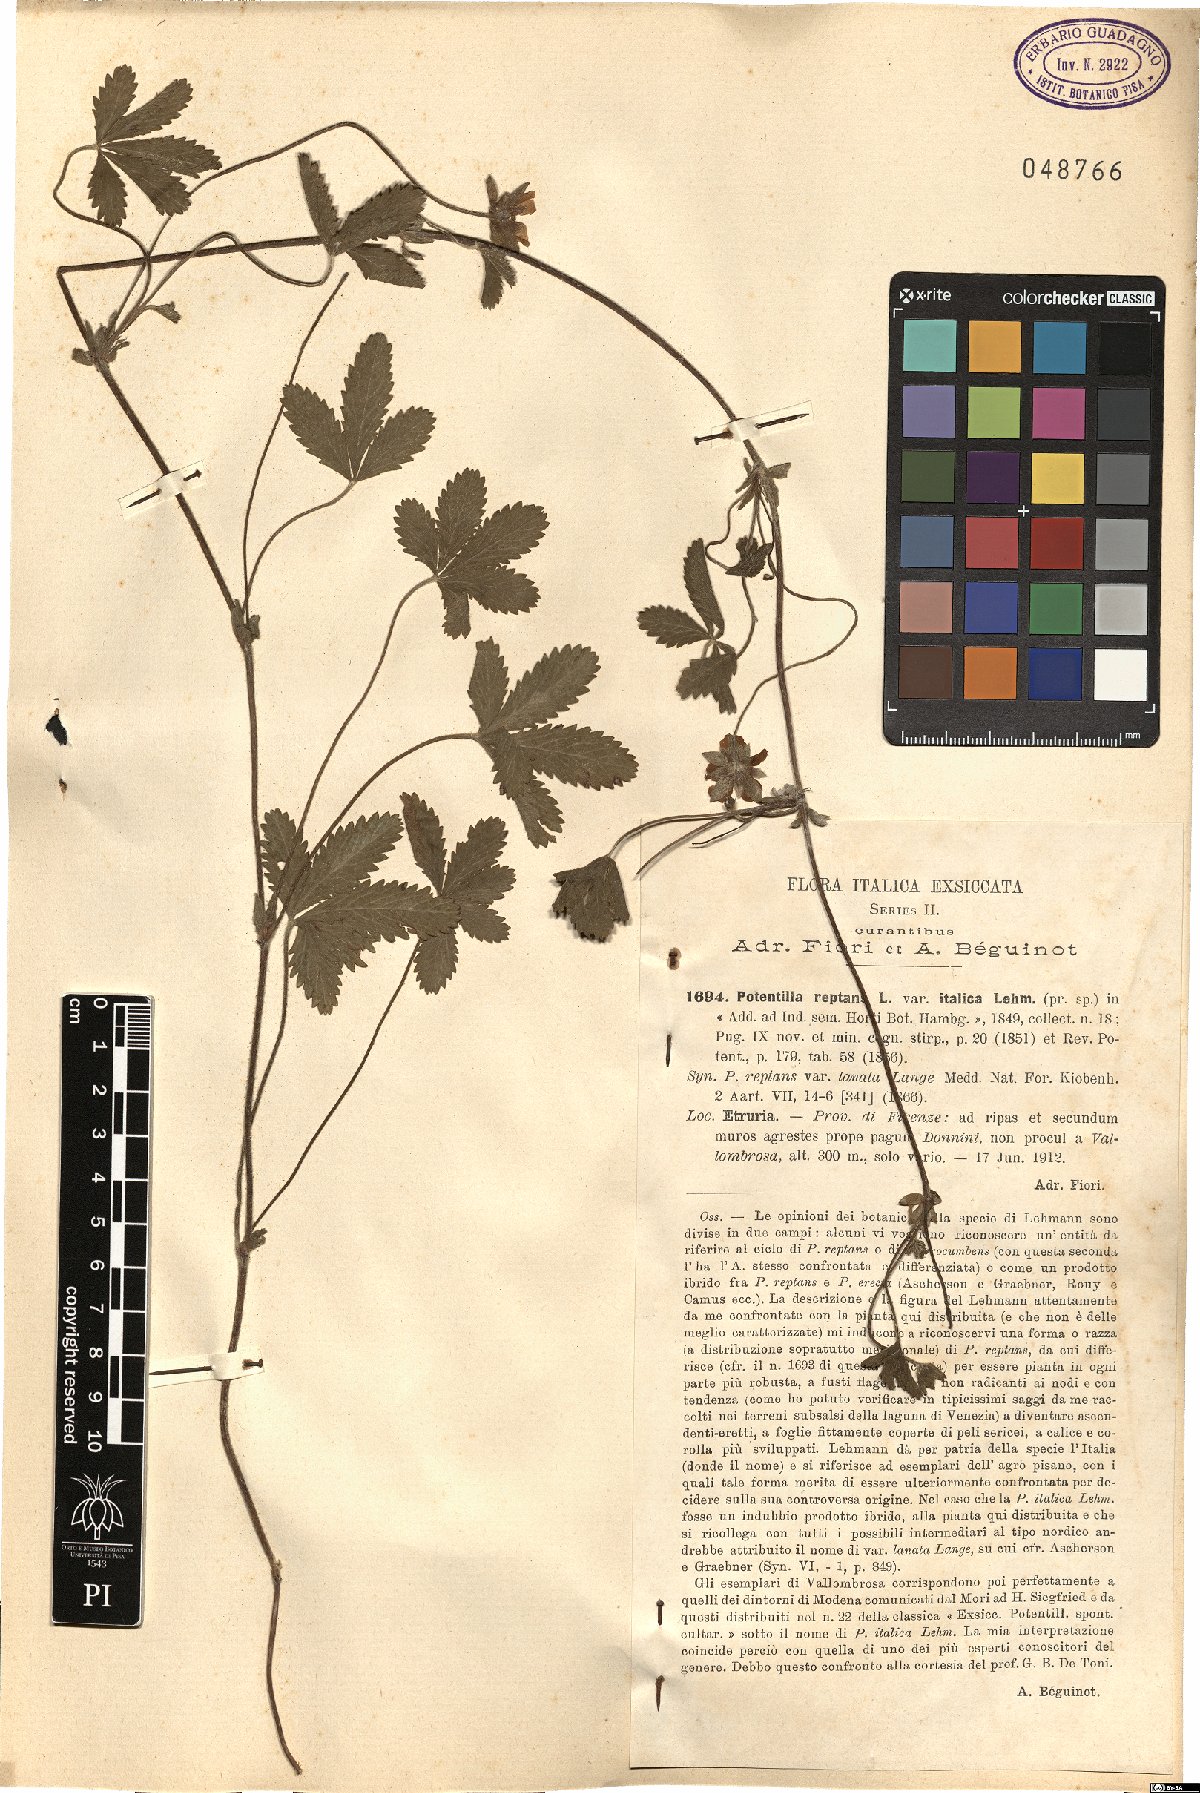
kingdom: Plantae
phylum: Tracheophyta
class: Magnoliopsida
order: Rosales
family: Rosaceae
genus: Potentilla
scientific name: Potentilla reptans
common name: Creeping cinquefoil
